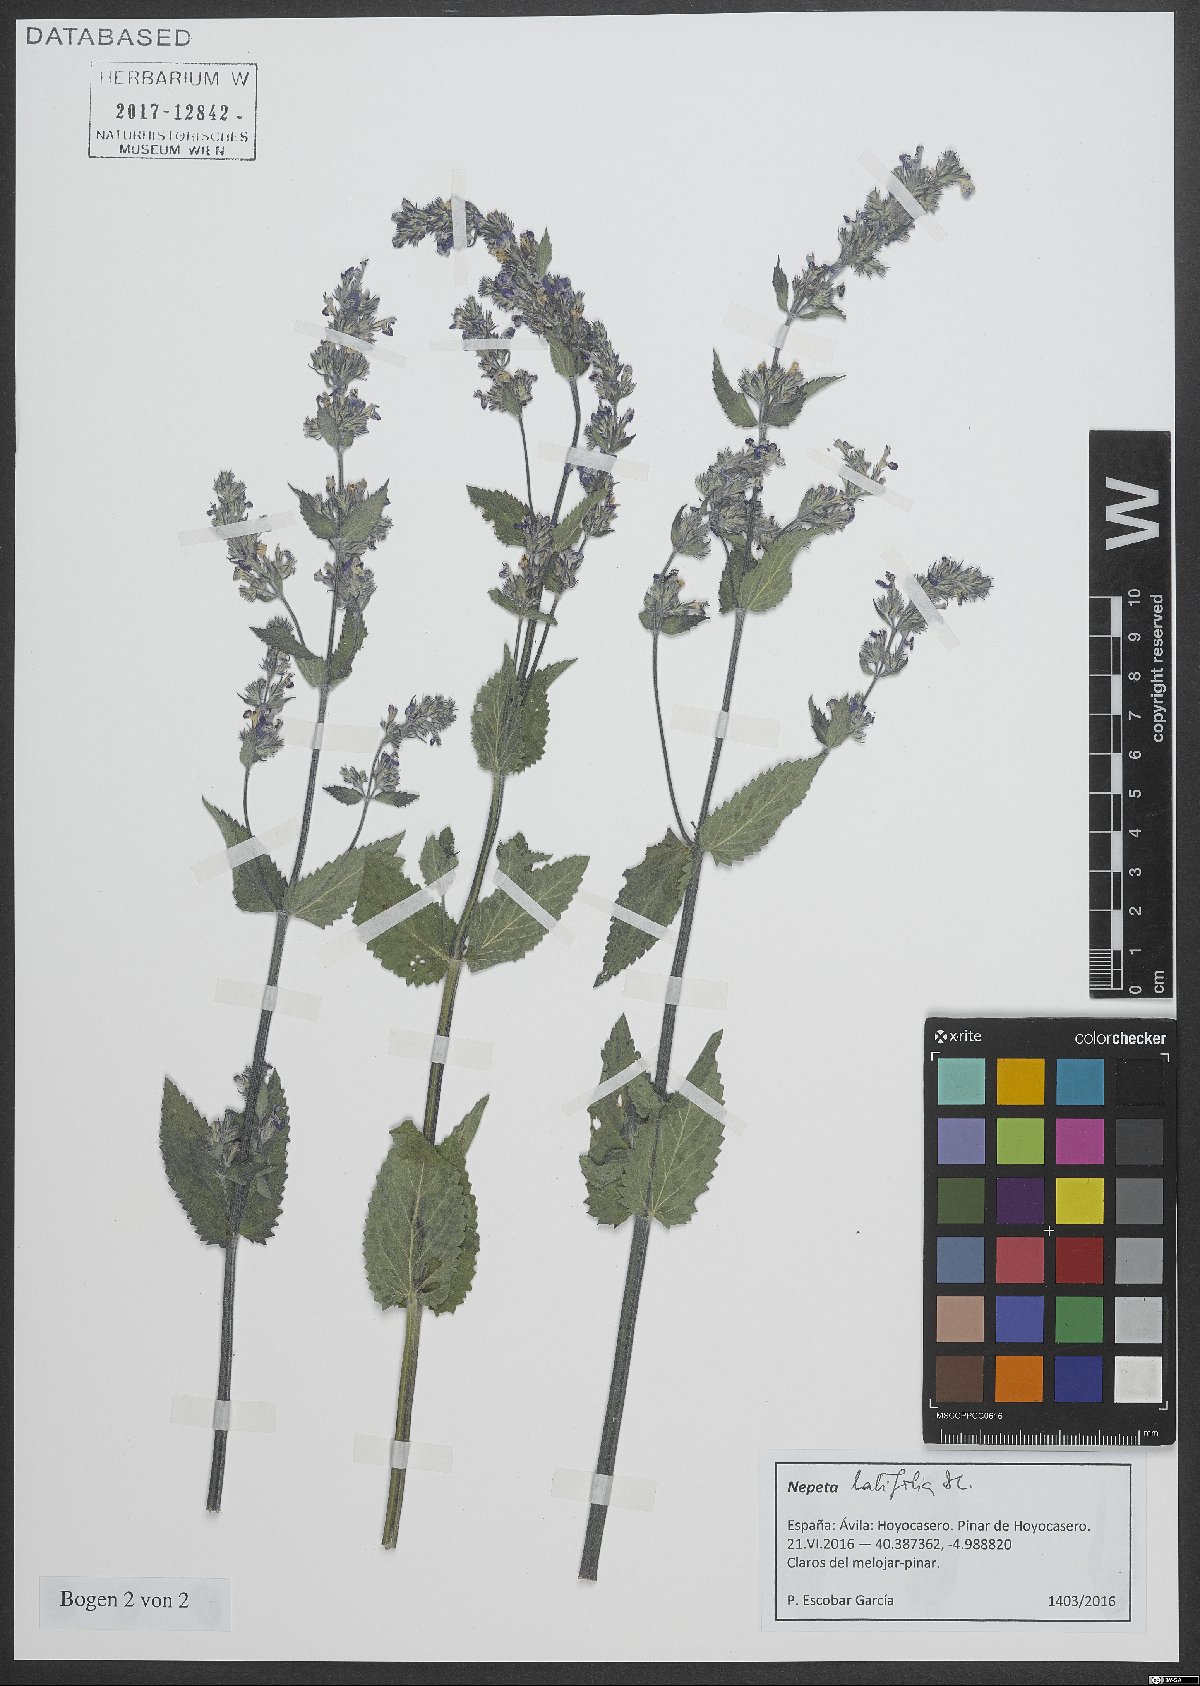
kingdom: Plantae
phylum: Tracheophyta
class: Magnoliopsida
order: Lamiales
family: Lamiaceae
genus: Nepeta
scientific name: Nepeta latifolia
